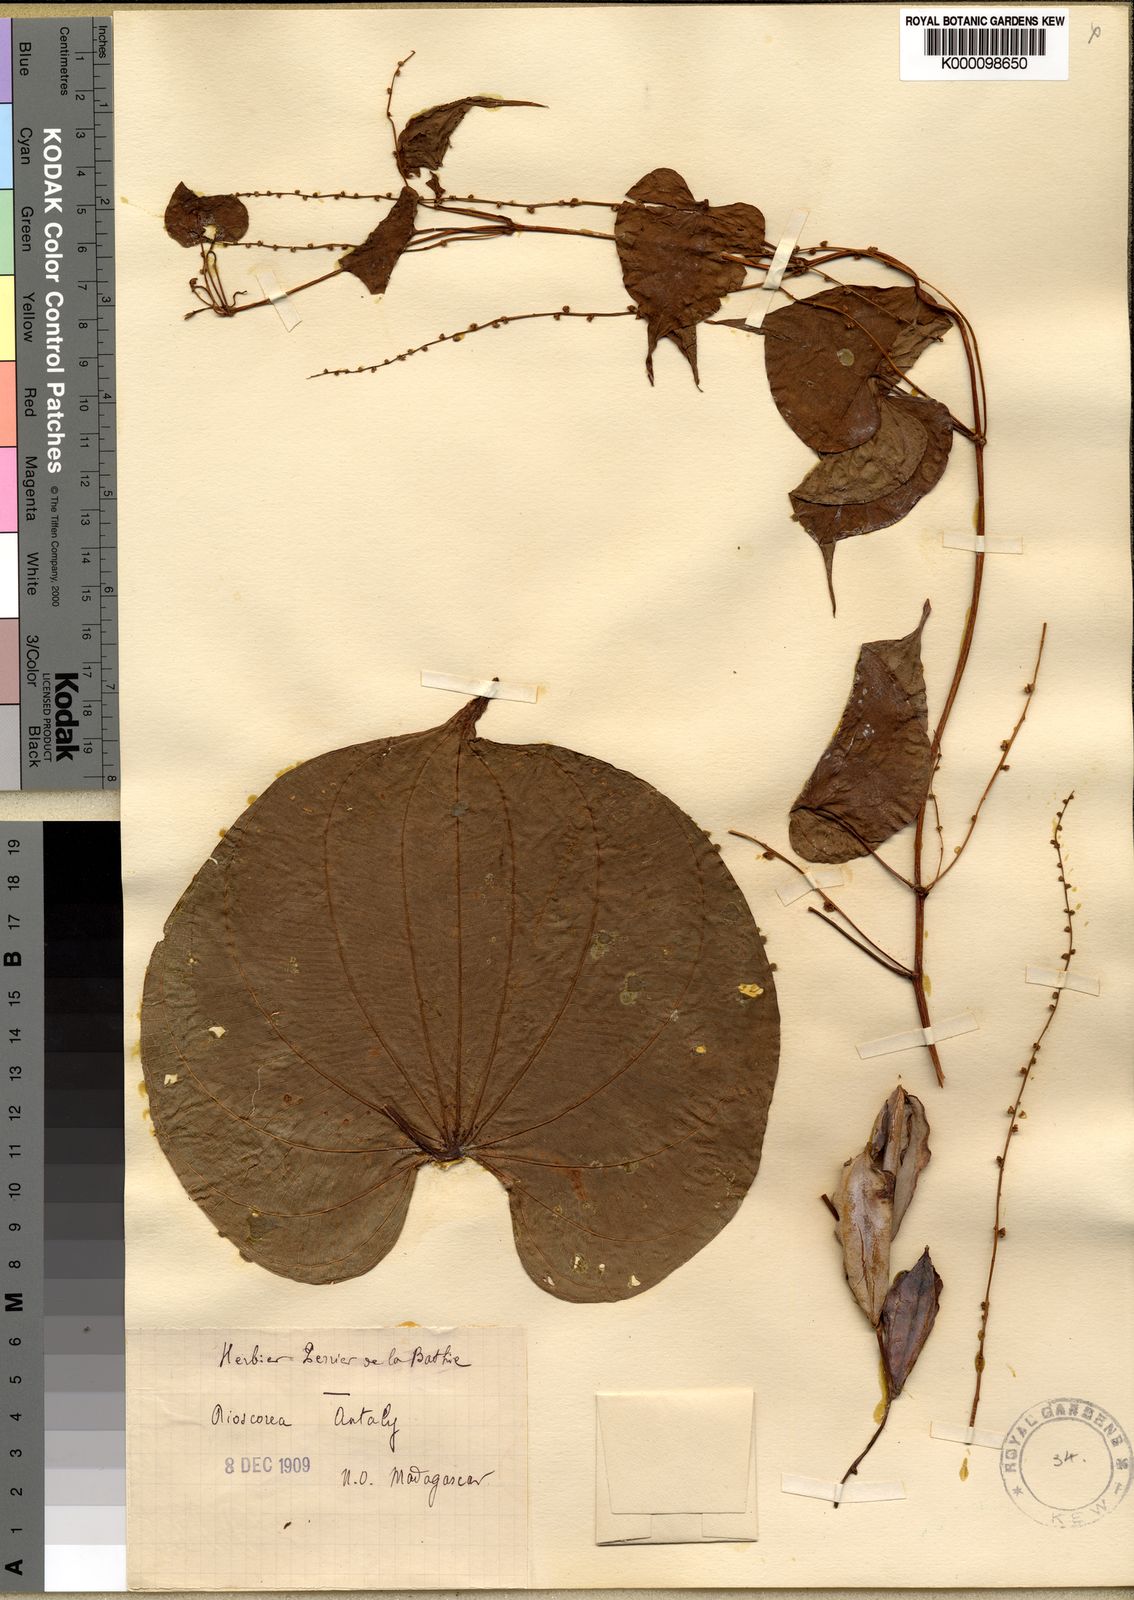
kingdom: Plantae
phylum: Tracheophyta
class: Liliopsida
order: Dioscoreales
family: Dioscoreaceae
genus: Dioscorea
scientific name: Dioscorea antaly
